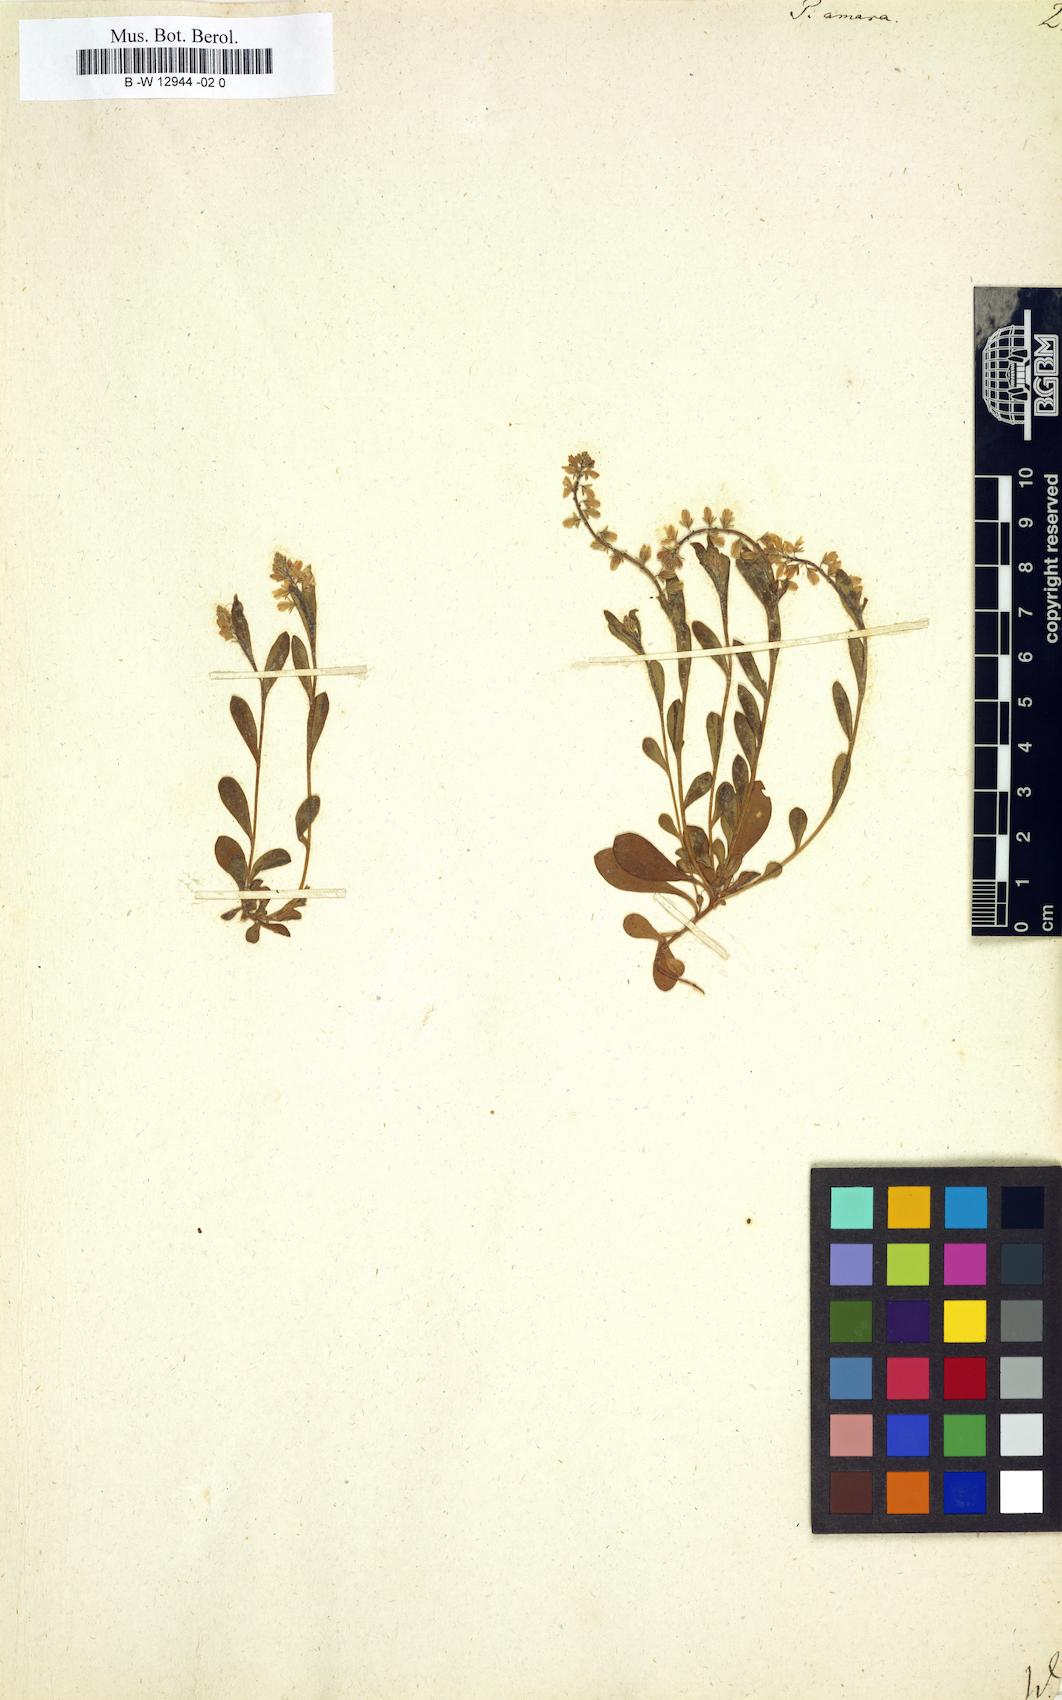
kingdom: Plantae
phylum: Tracheophyta
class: Magnoliopsida
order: Fabales
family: Polygalaceae
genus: Polygala
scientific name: Polygala amara
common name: Milkwort
